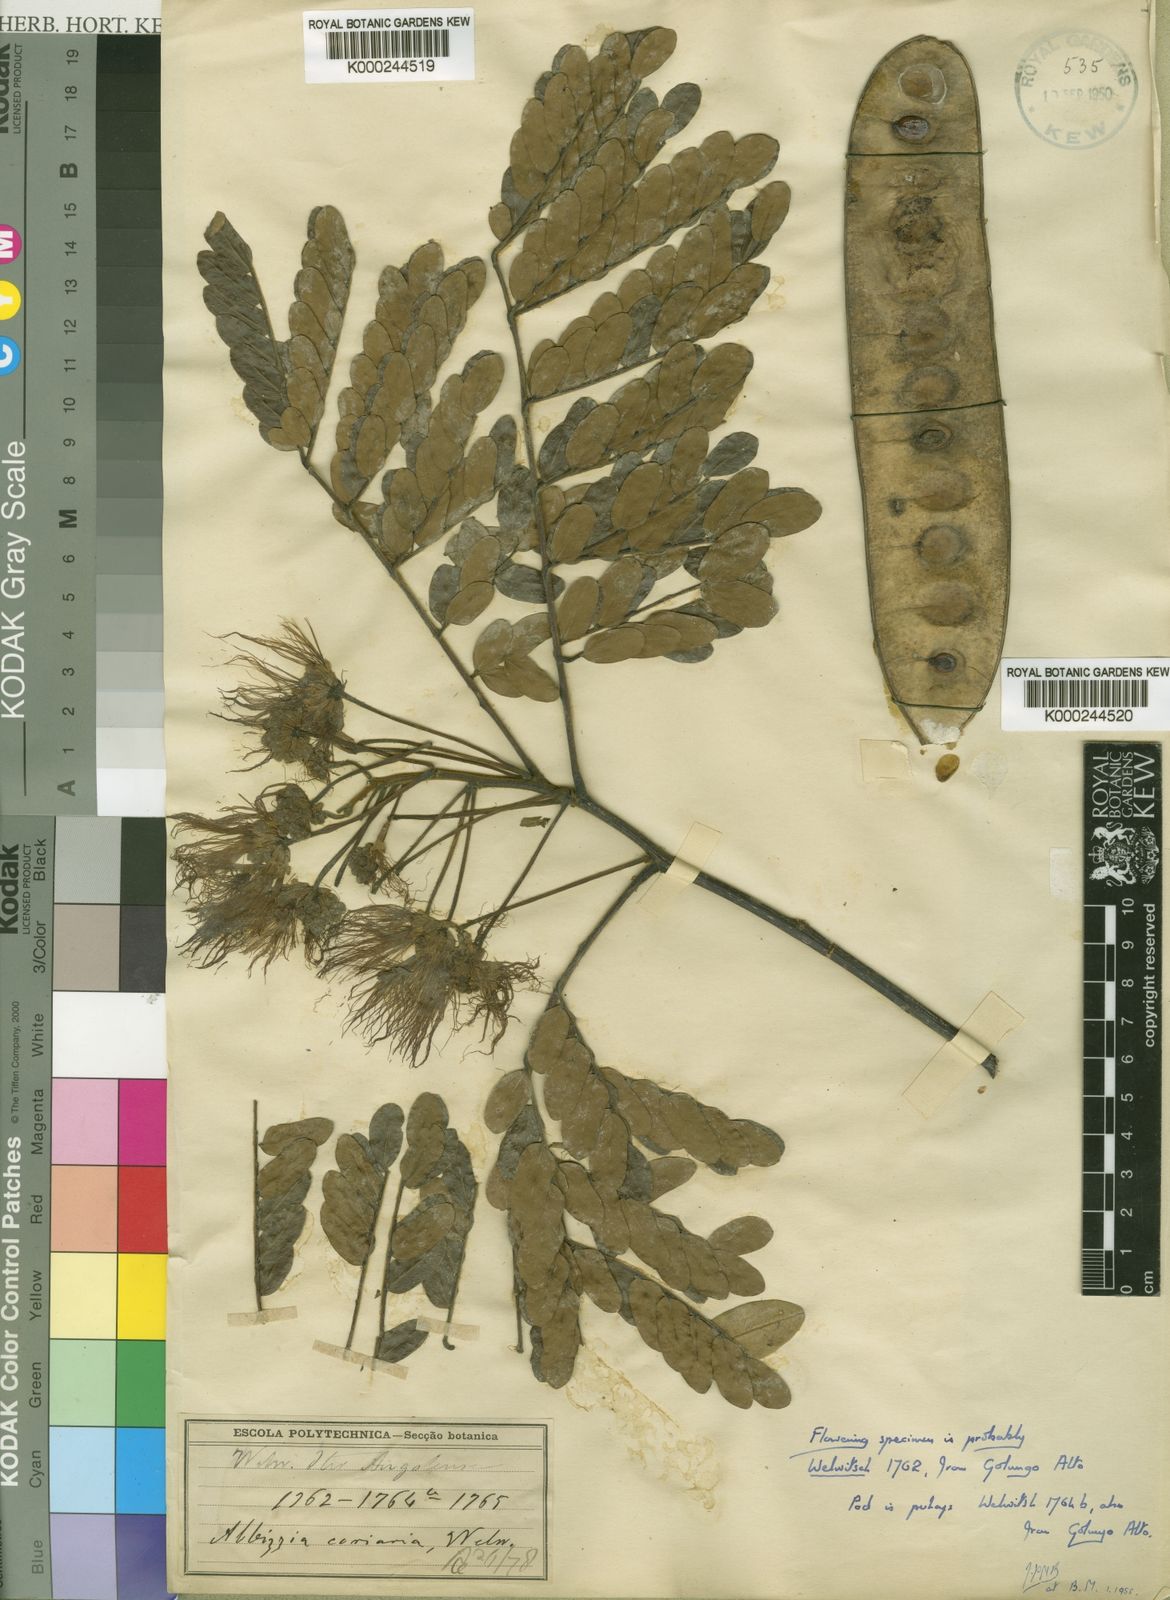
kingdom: Plantae
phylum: Tracheophyta
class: Magnoliopsida
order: Fabales
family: Fabaceae
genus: Albizia
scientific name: Albizia coriaria
